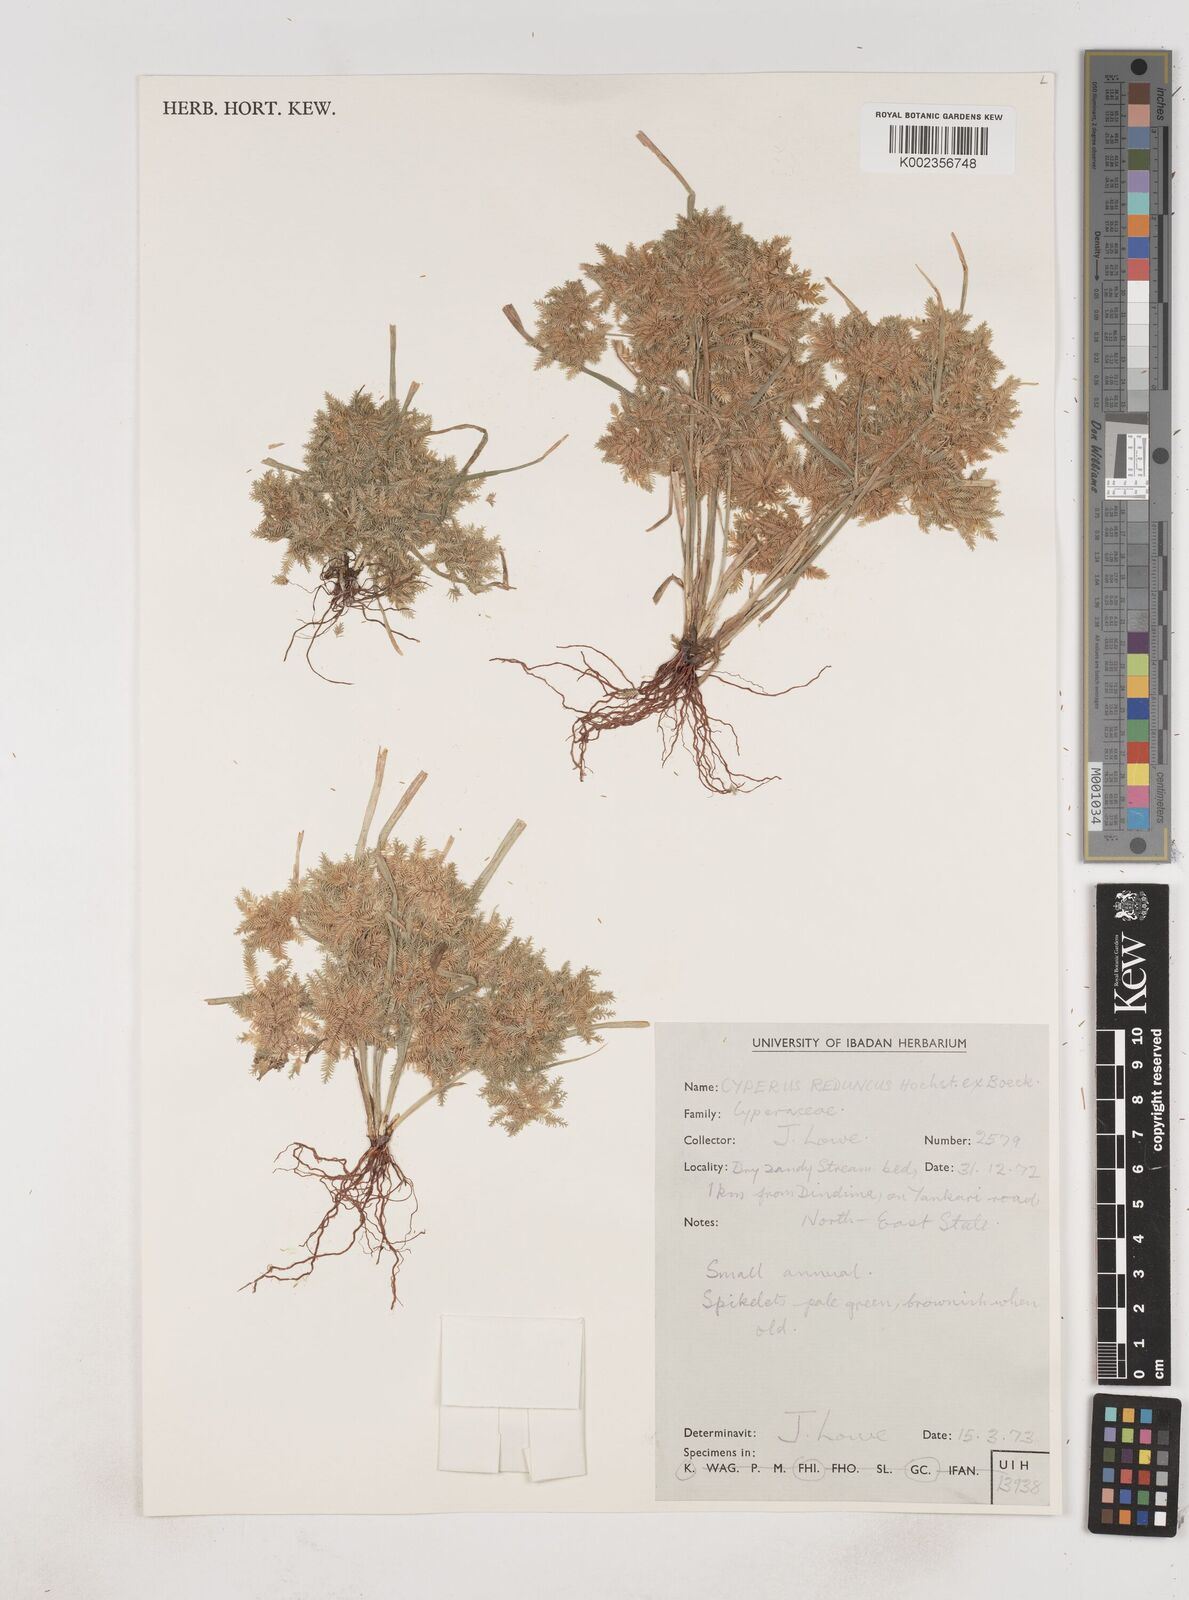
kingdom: Plantae
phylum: Tracheophyta
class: Liliopsida
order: Poales
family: Cyperaceae
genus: Cyperus
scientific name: Cyperus reduncus
